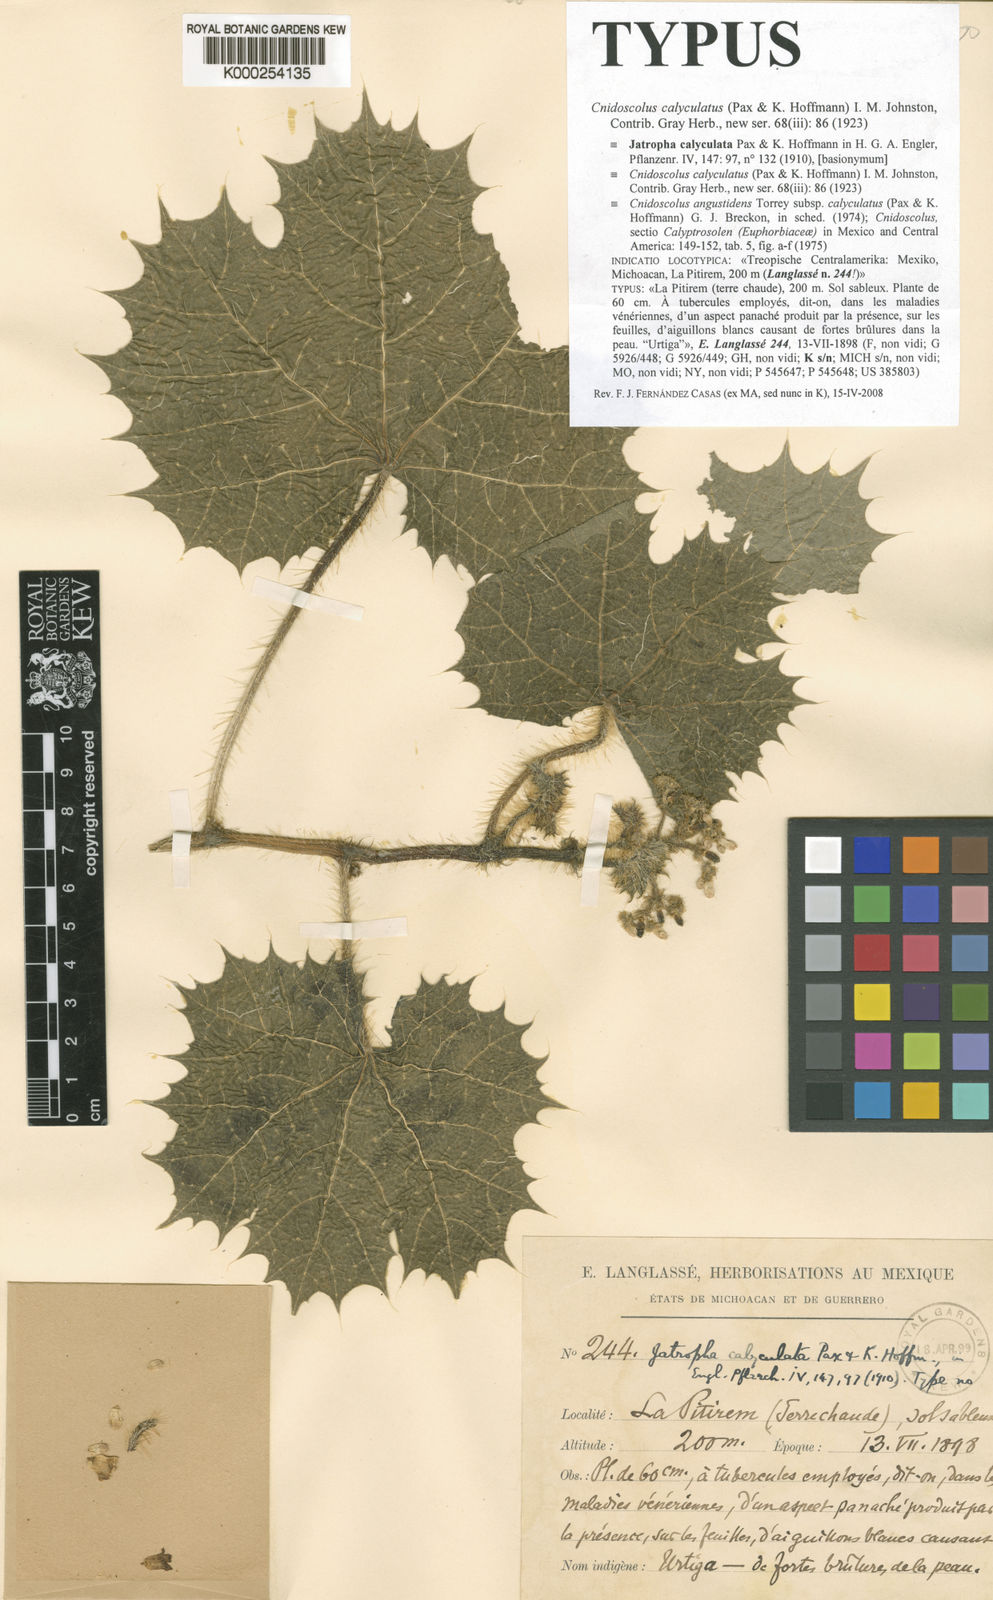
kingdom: Plantae
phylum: Tracheophyta
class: Magnoliopsida
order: Malpighiales
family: Euphorbiaceae
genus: Cnidoscolus
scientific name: Cnidoscolus angustidens
